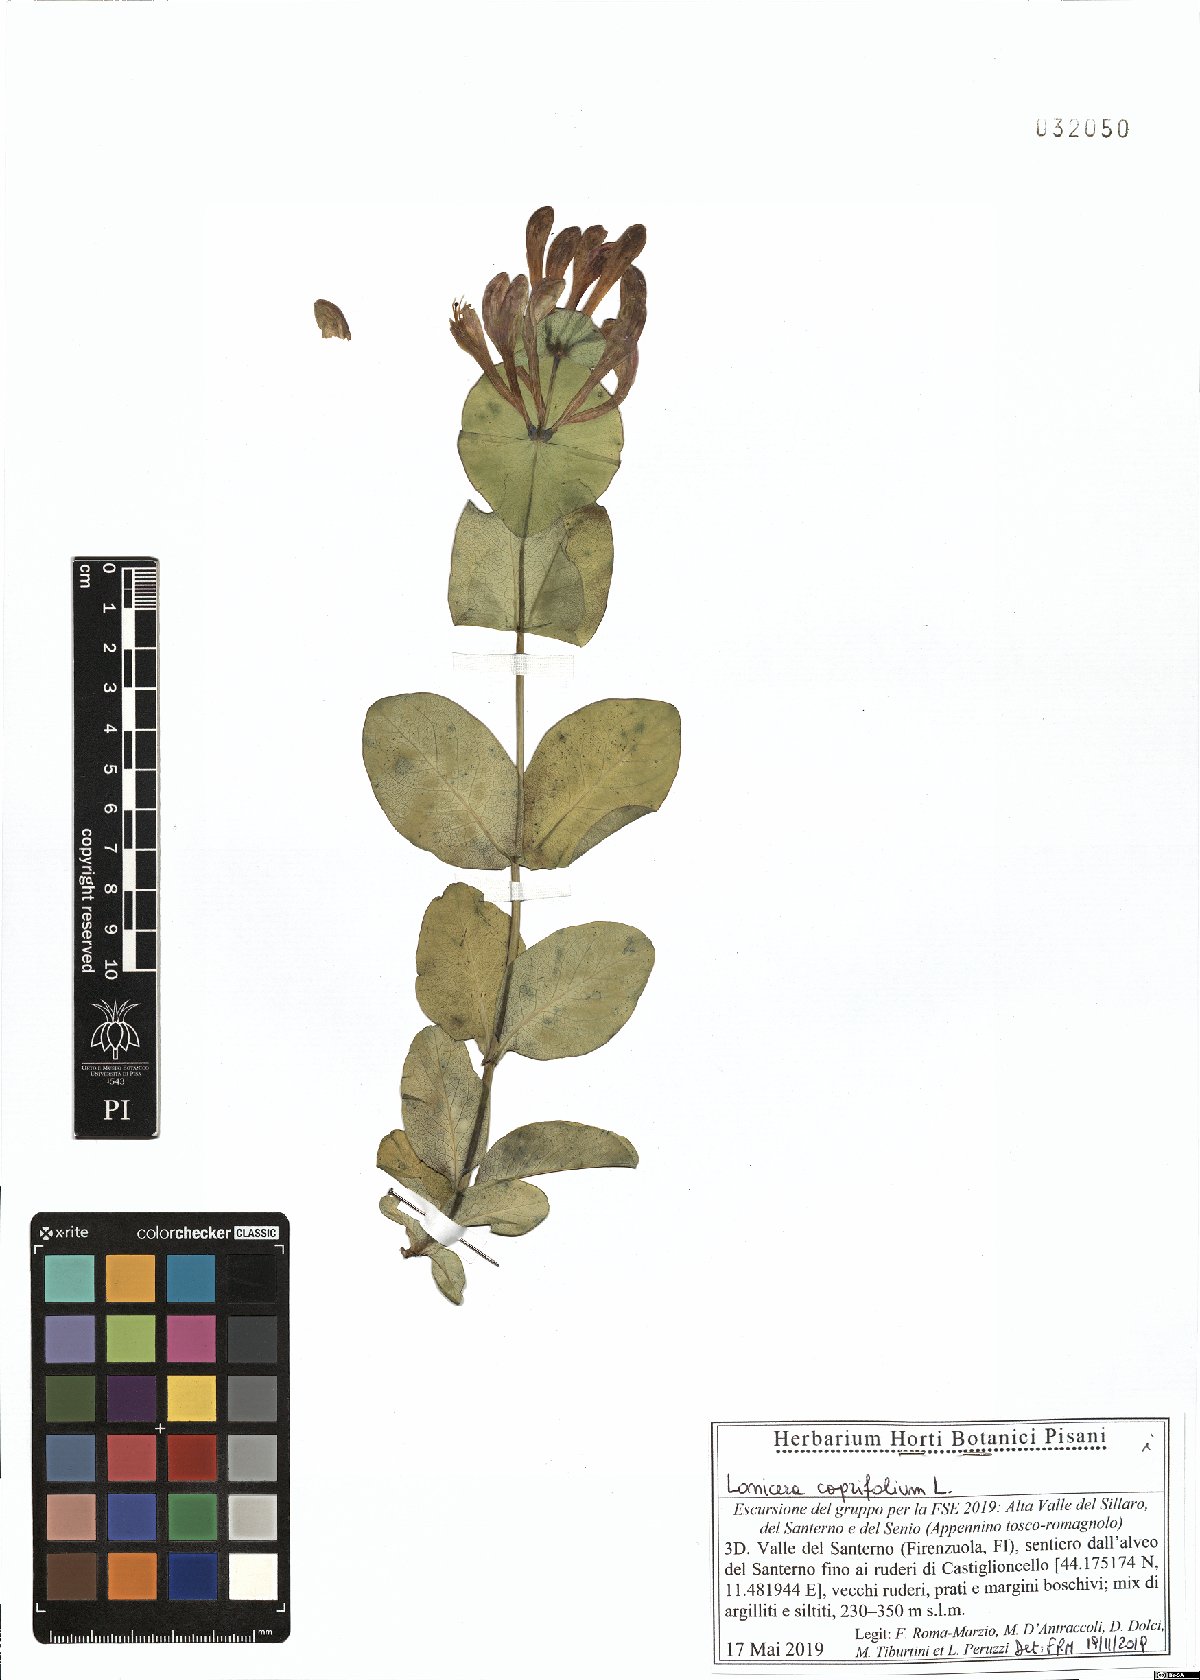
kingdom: Plantae
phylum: Tracheophyta
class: Magnoliopsida
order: Dipsacales
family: Caprifoliaceae
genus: Lonicera
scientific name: Lonicera caprifolium
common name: Perfoliate honeysuckle
